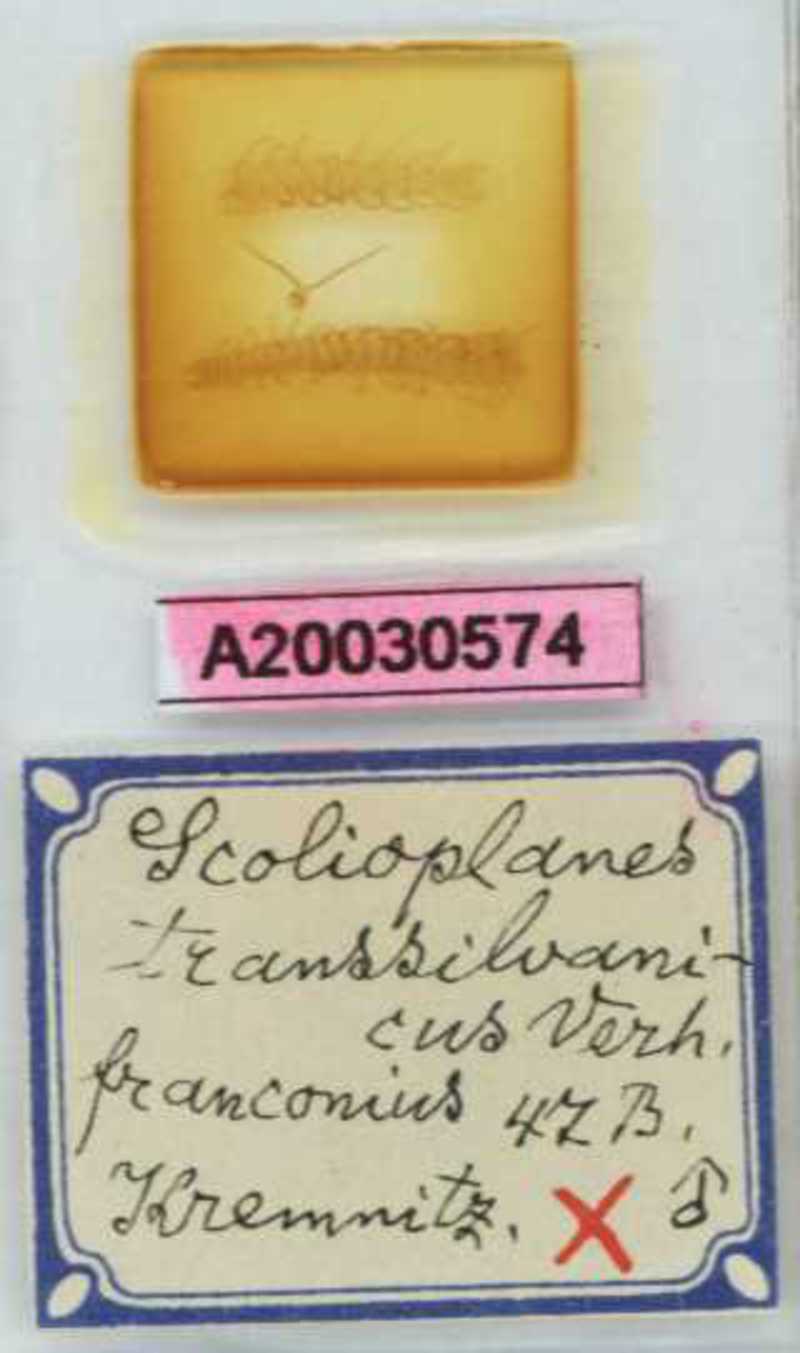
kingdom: Animalia
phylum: Arthropoda
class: Chilopoda
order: Geophilomorpha
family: Linotaeniidae
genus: Strigamia
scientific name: Strigamia transsilvanica
